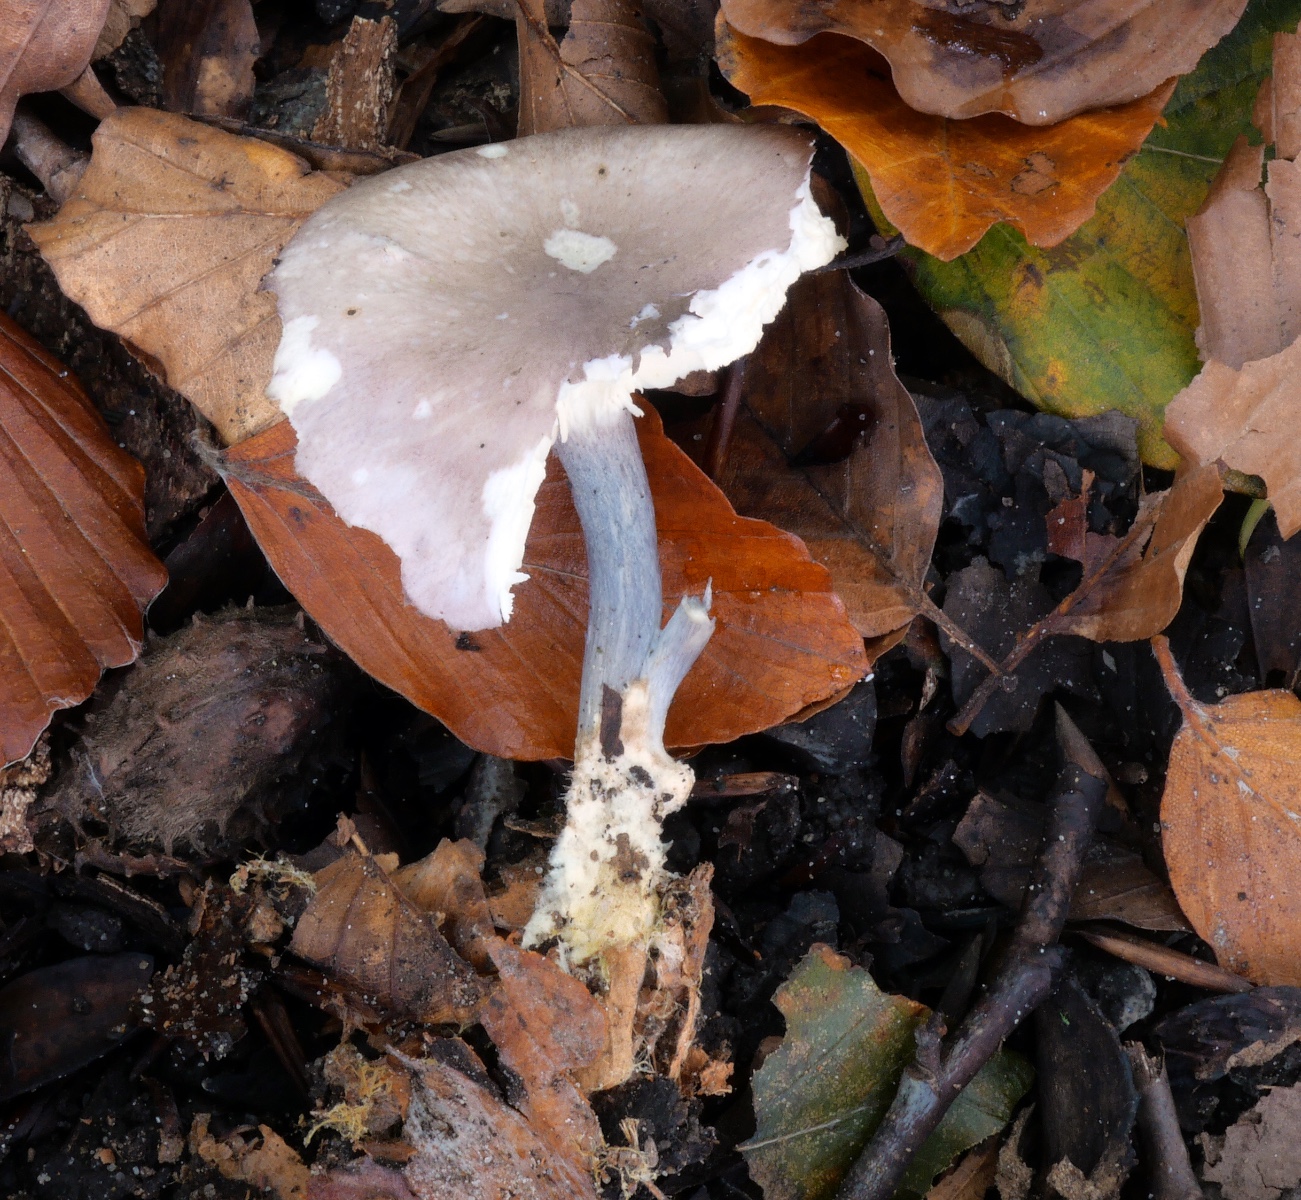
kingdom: Fungi
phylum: Basidiomycota
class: Agaricomycetes
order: Agaricales
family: Lyophyllaceae
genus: Calocybe
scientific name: Calocybe ionides
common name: violblå fagerhat
